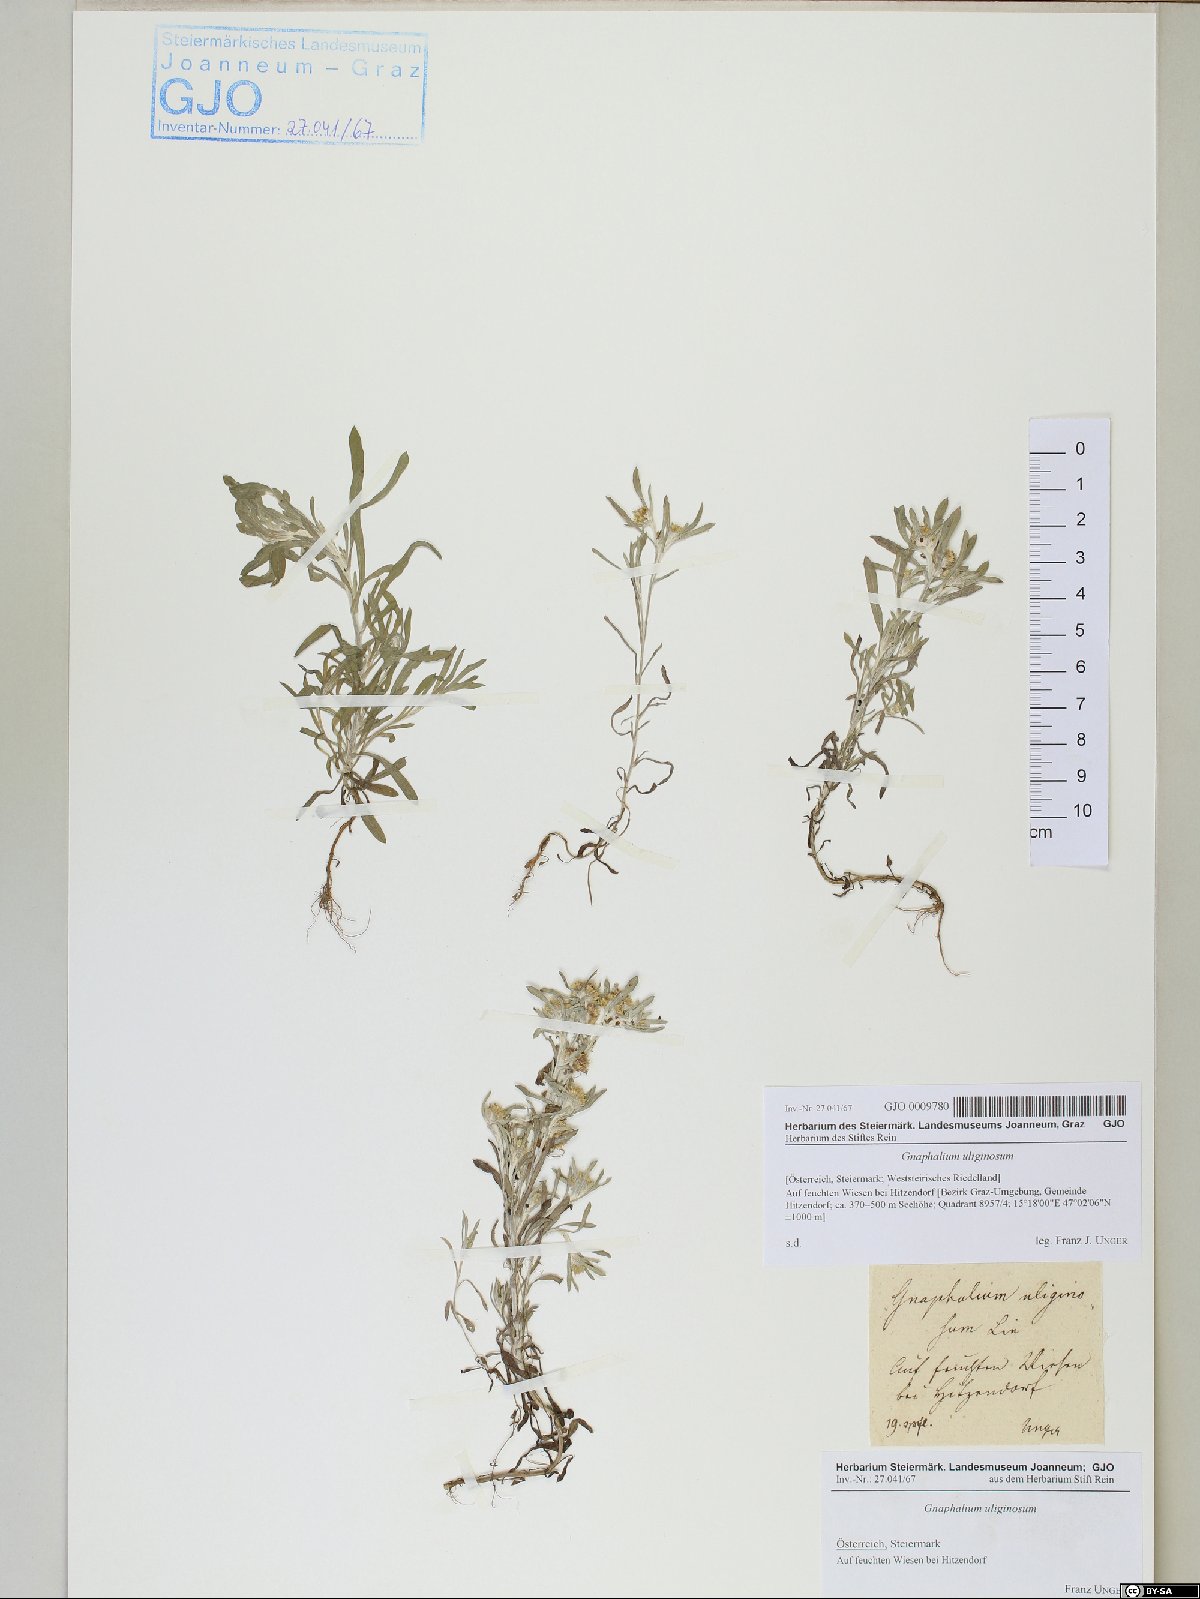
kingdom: Plantae
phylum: Tracheophyta
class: Magnoliopsida
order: Asterales
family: Asteraceae
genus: Gnaphalium
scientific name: Gnaphalium uliginosum
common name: Marsh cudweed
